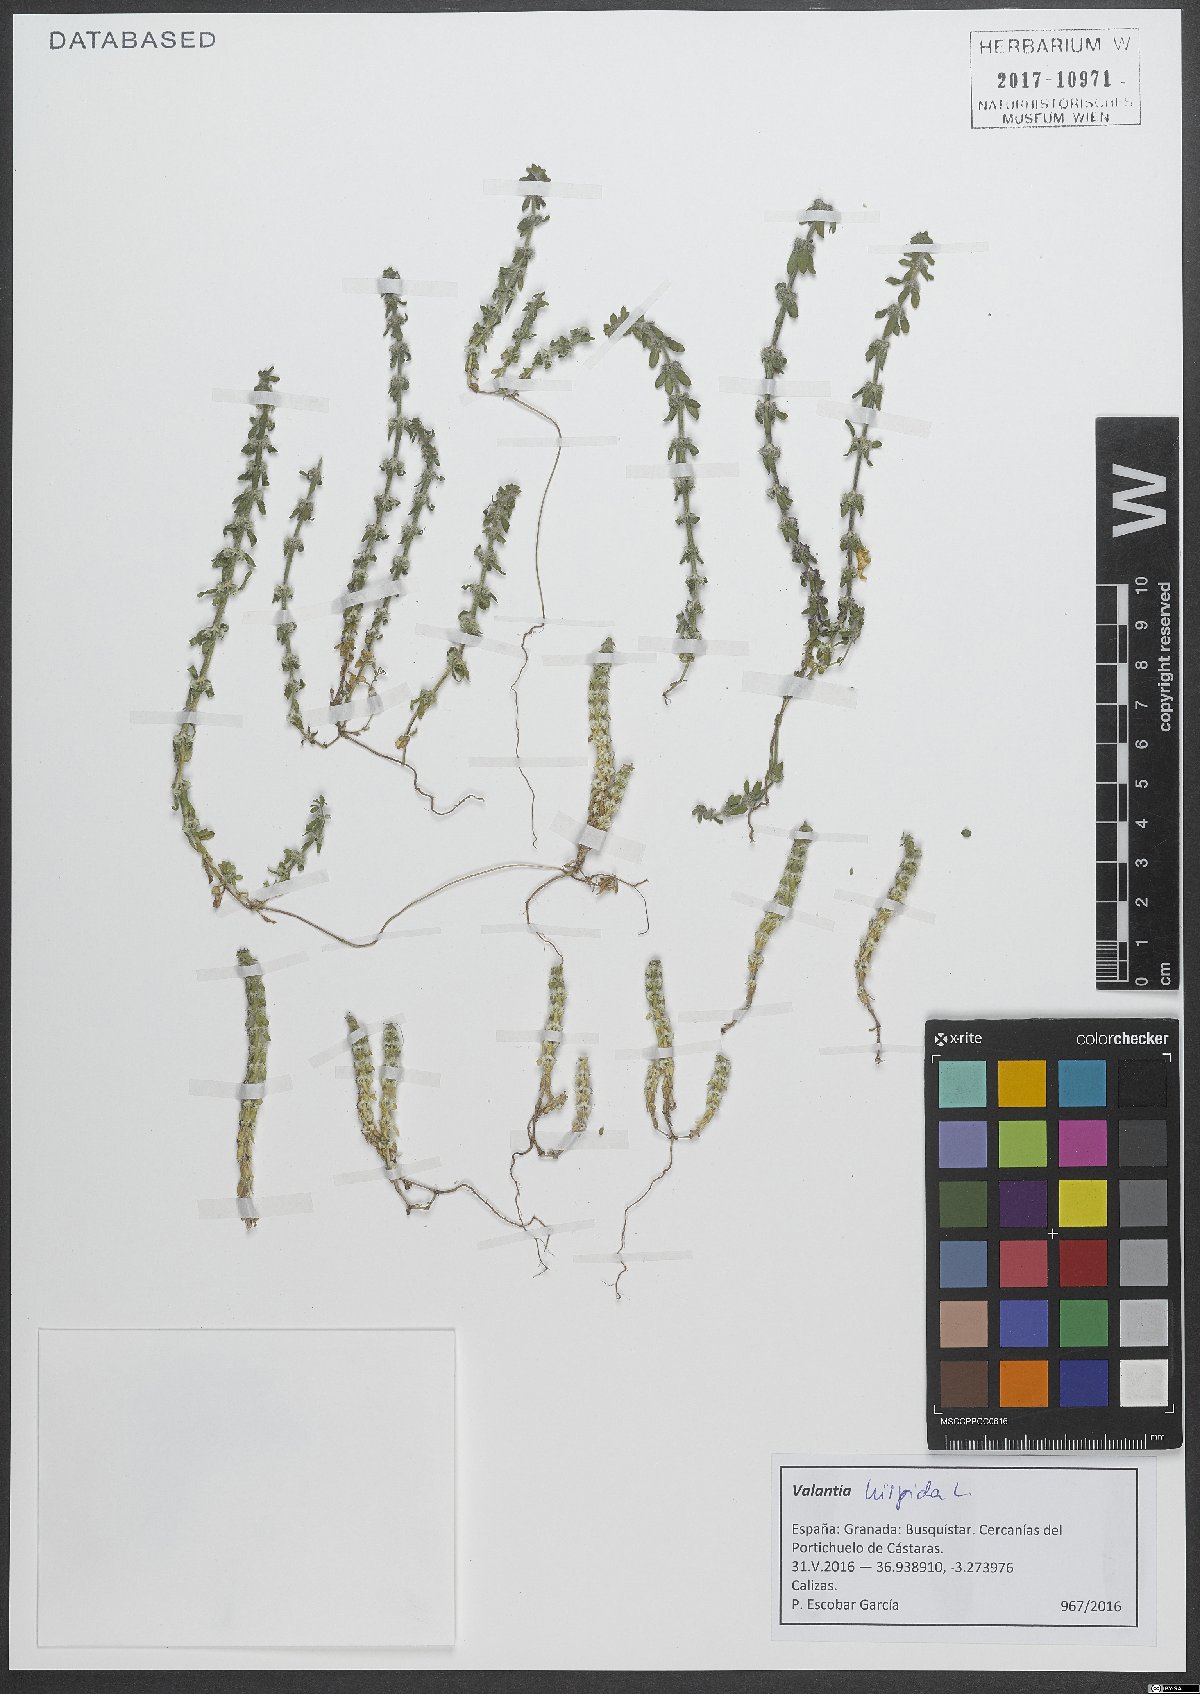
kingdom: Plantae
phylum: Tracheophyta
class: Magnoliopsida
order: Gentianales
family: Rubiaceae
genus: Valantia
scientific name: Valantia hispida
